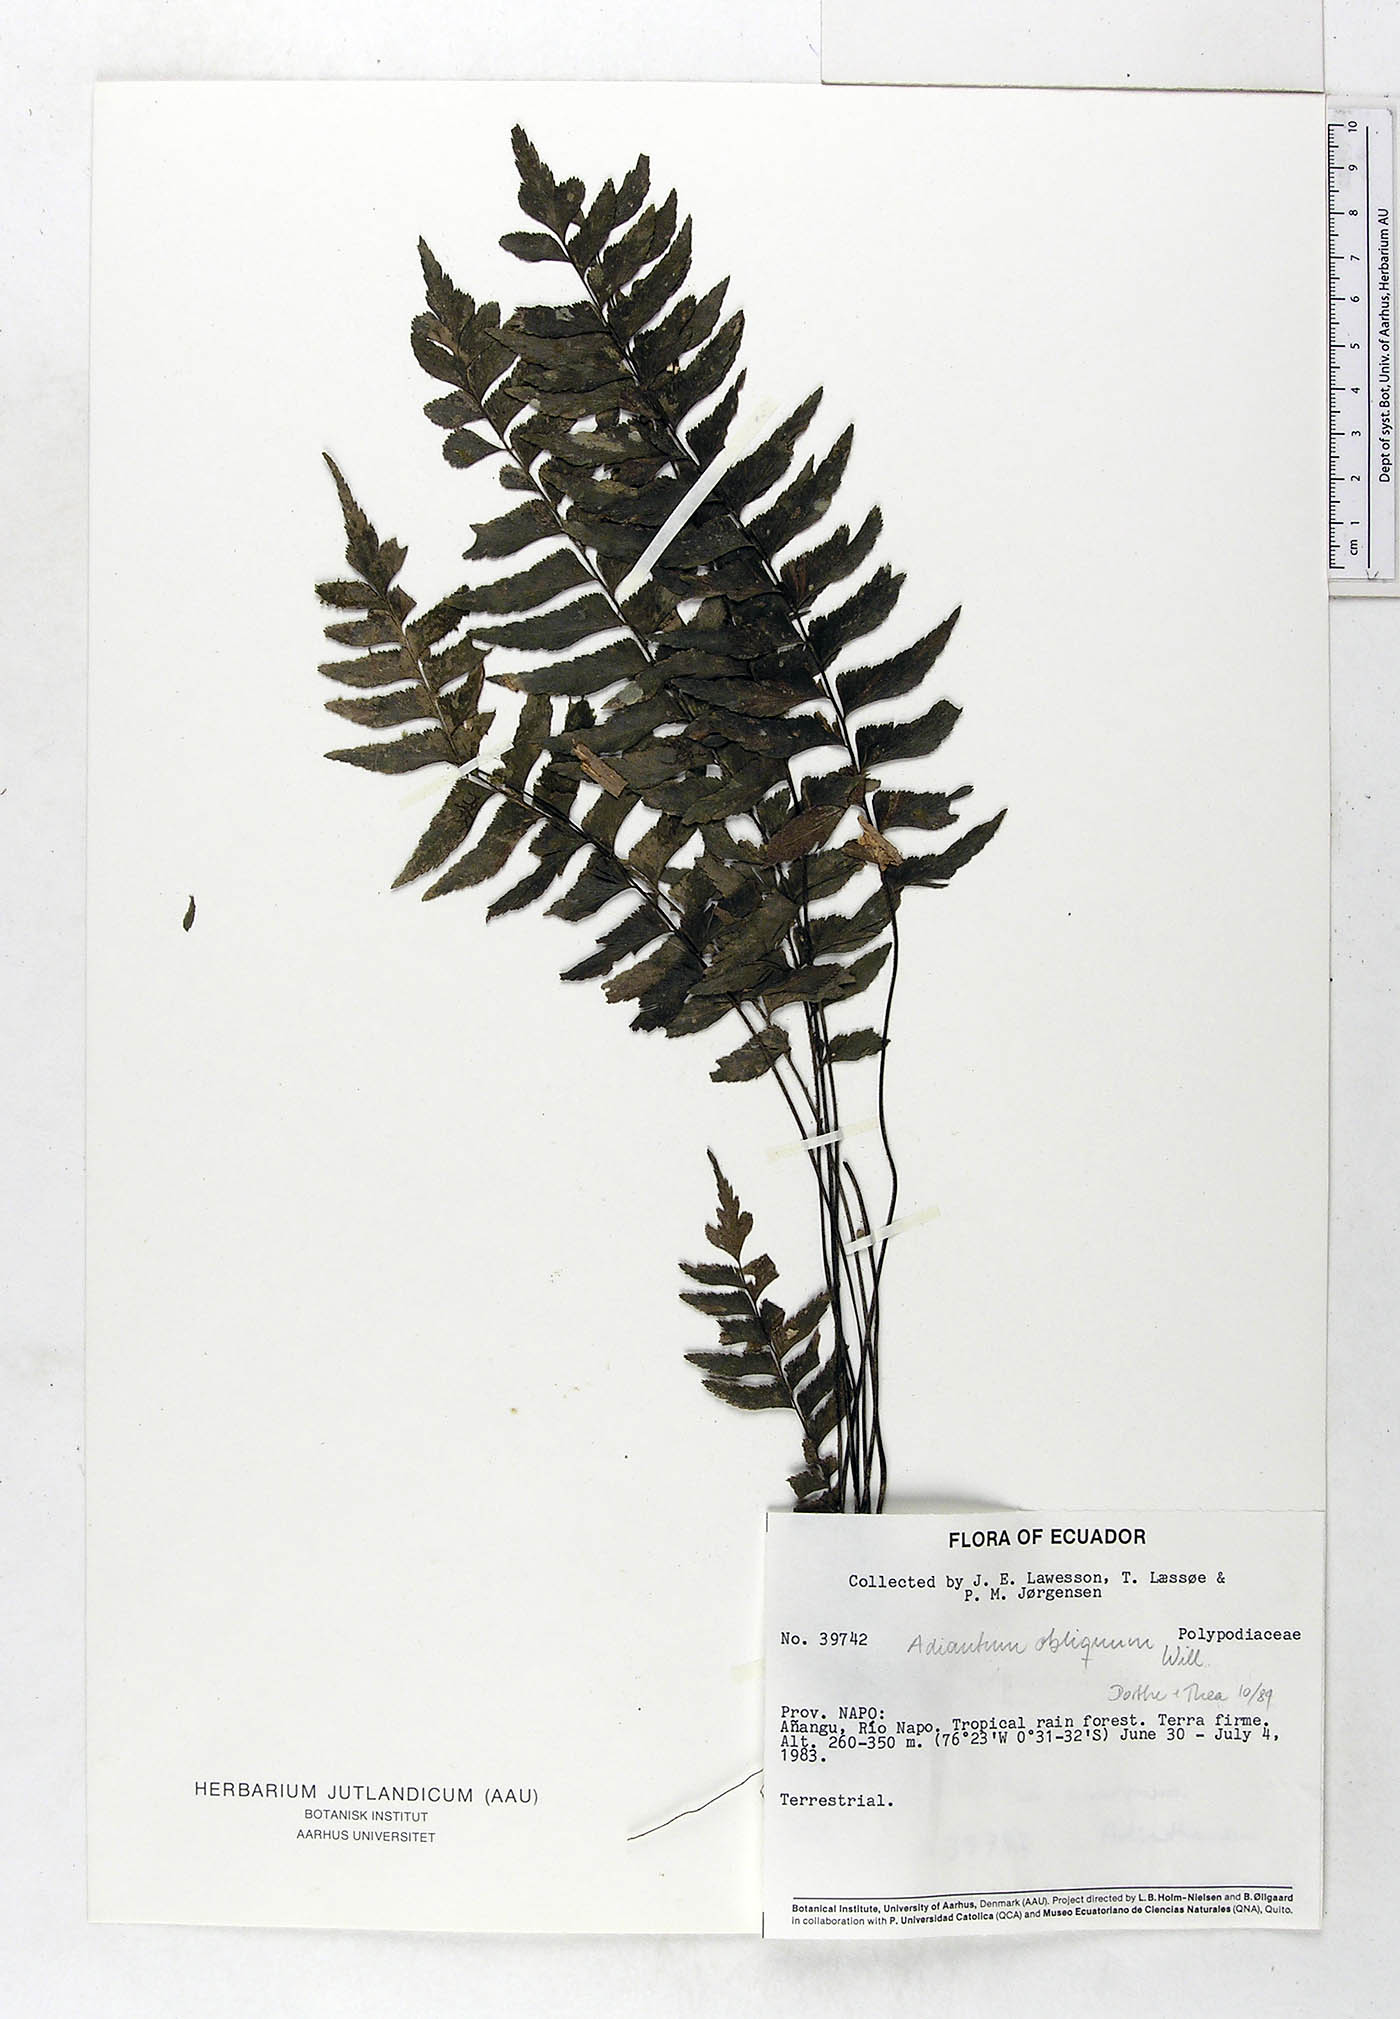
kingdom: Plantae
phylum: Tracheophyta
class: Polypodiopsida
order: Polypodiales
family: Pteridaceae
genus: Adiantum
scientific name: Adiantum obliquum
